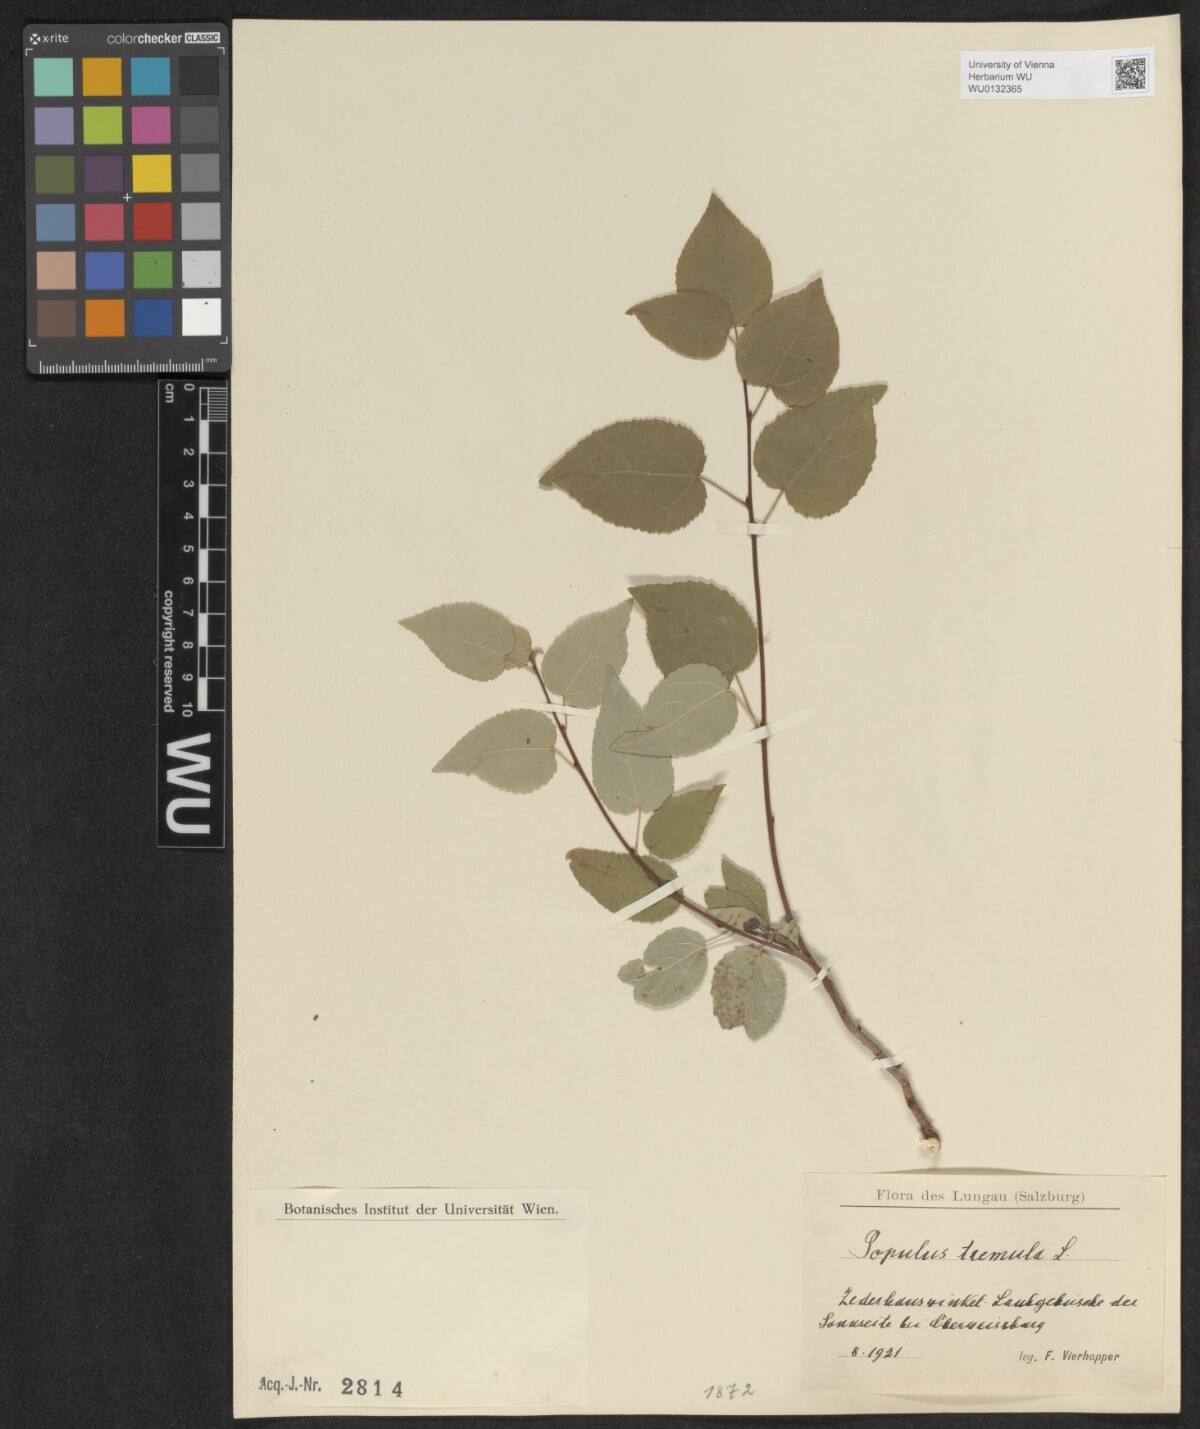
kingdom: Plantae
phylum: Tracheophyta
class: Magnoliopsida
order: Malpighiales
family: Salicaceae
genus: Populus
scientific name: Populus tremula
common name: European aspen
